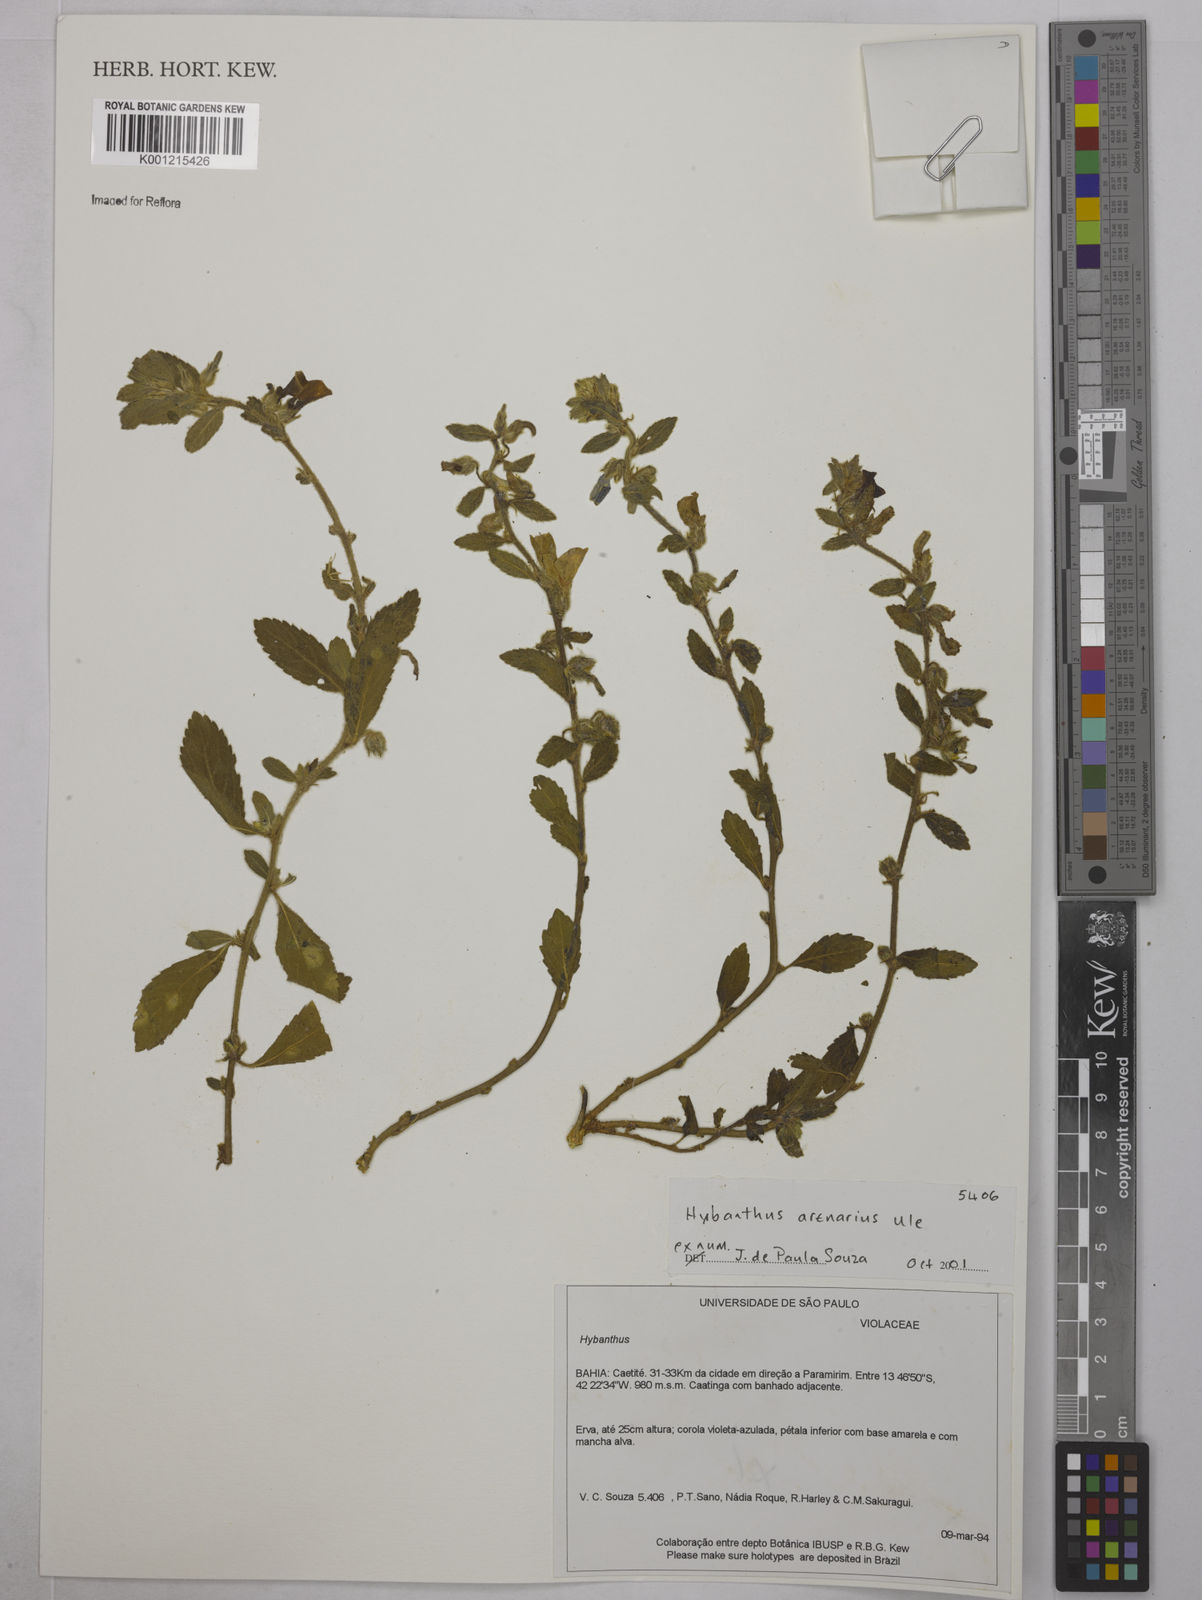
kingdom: Plantae
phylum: Tracheophyta
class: Magnoliopsida
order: Malpighiales
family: Violaceae
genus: Pombalia
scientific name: Pombalia arenaria
